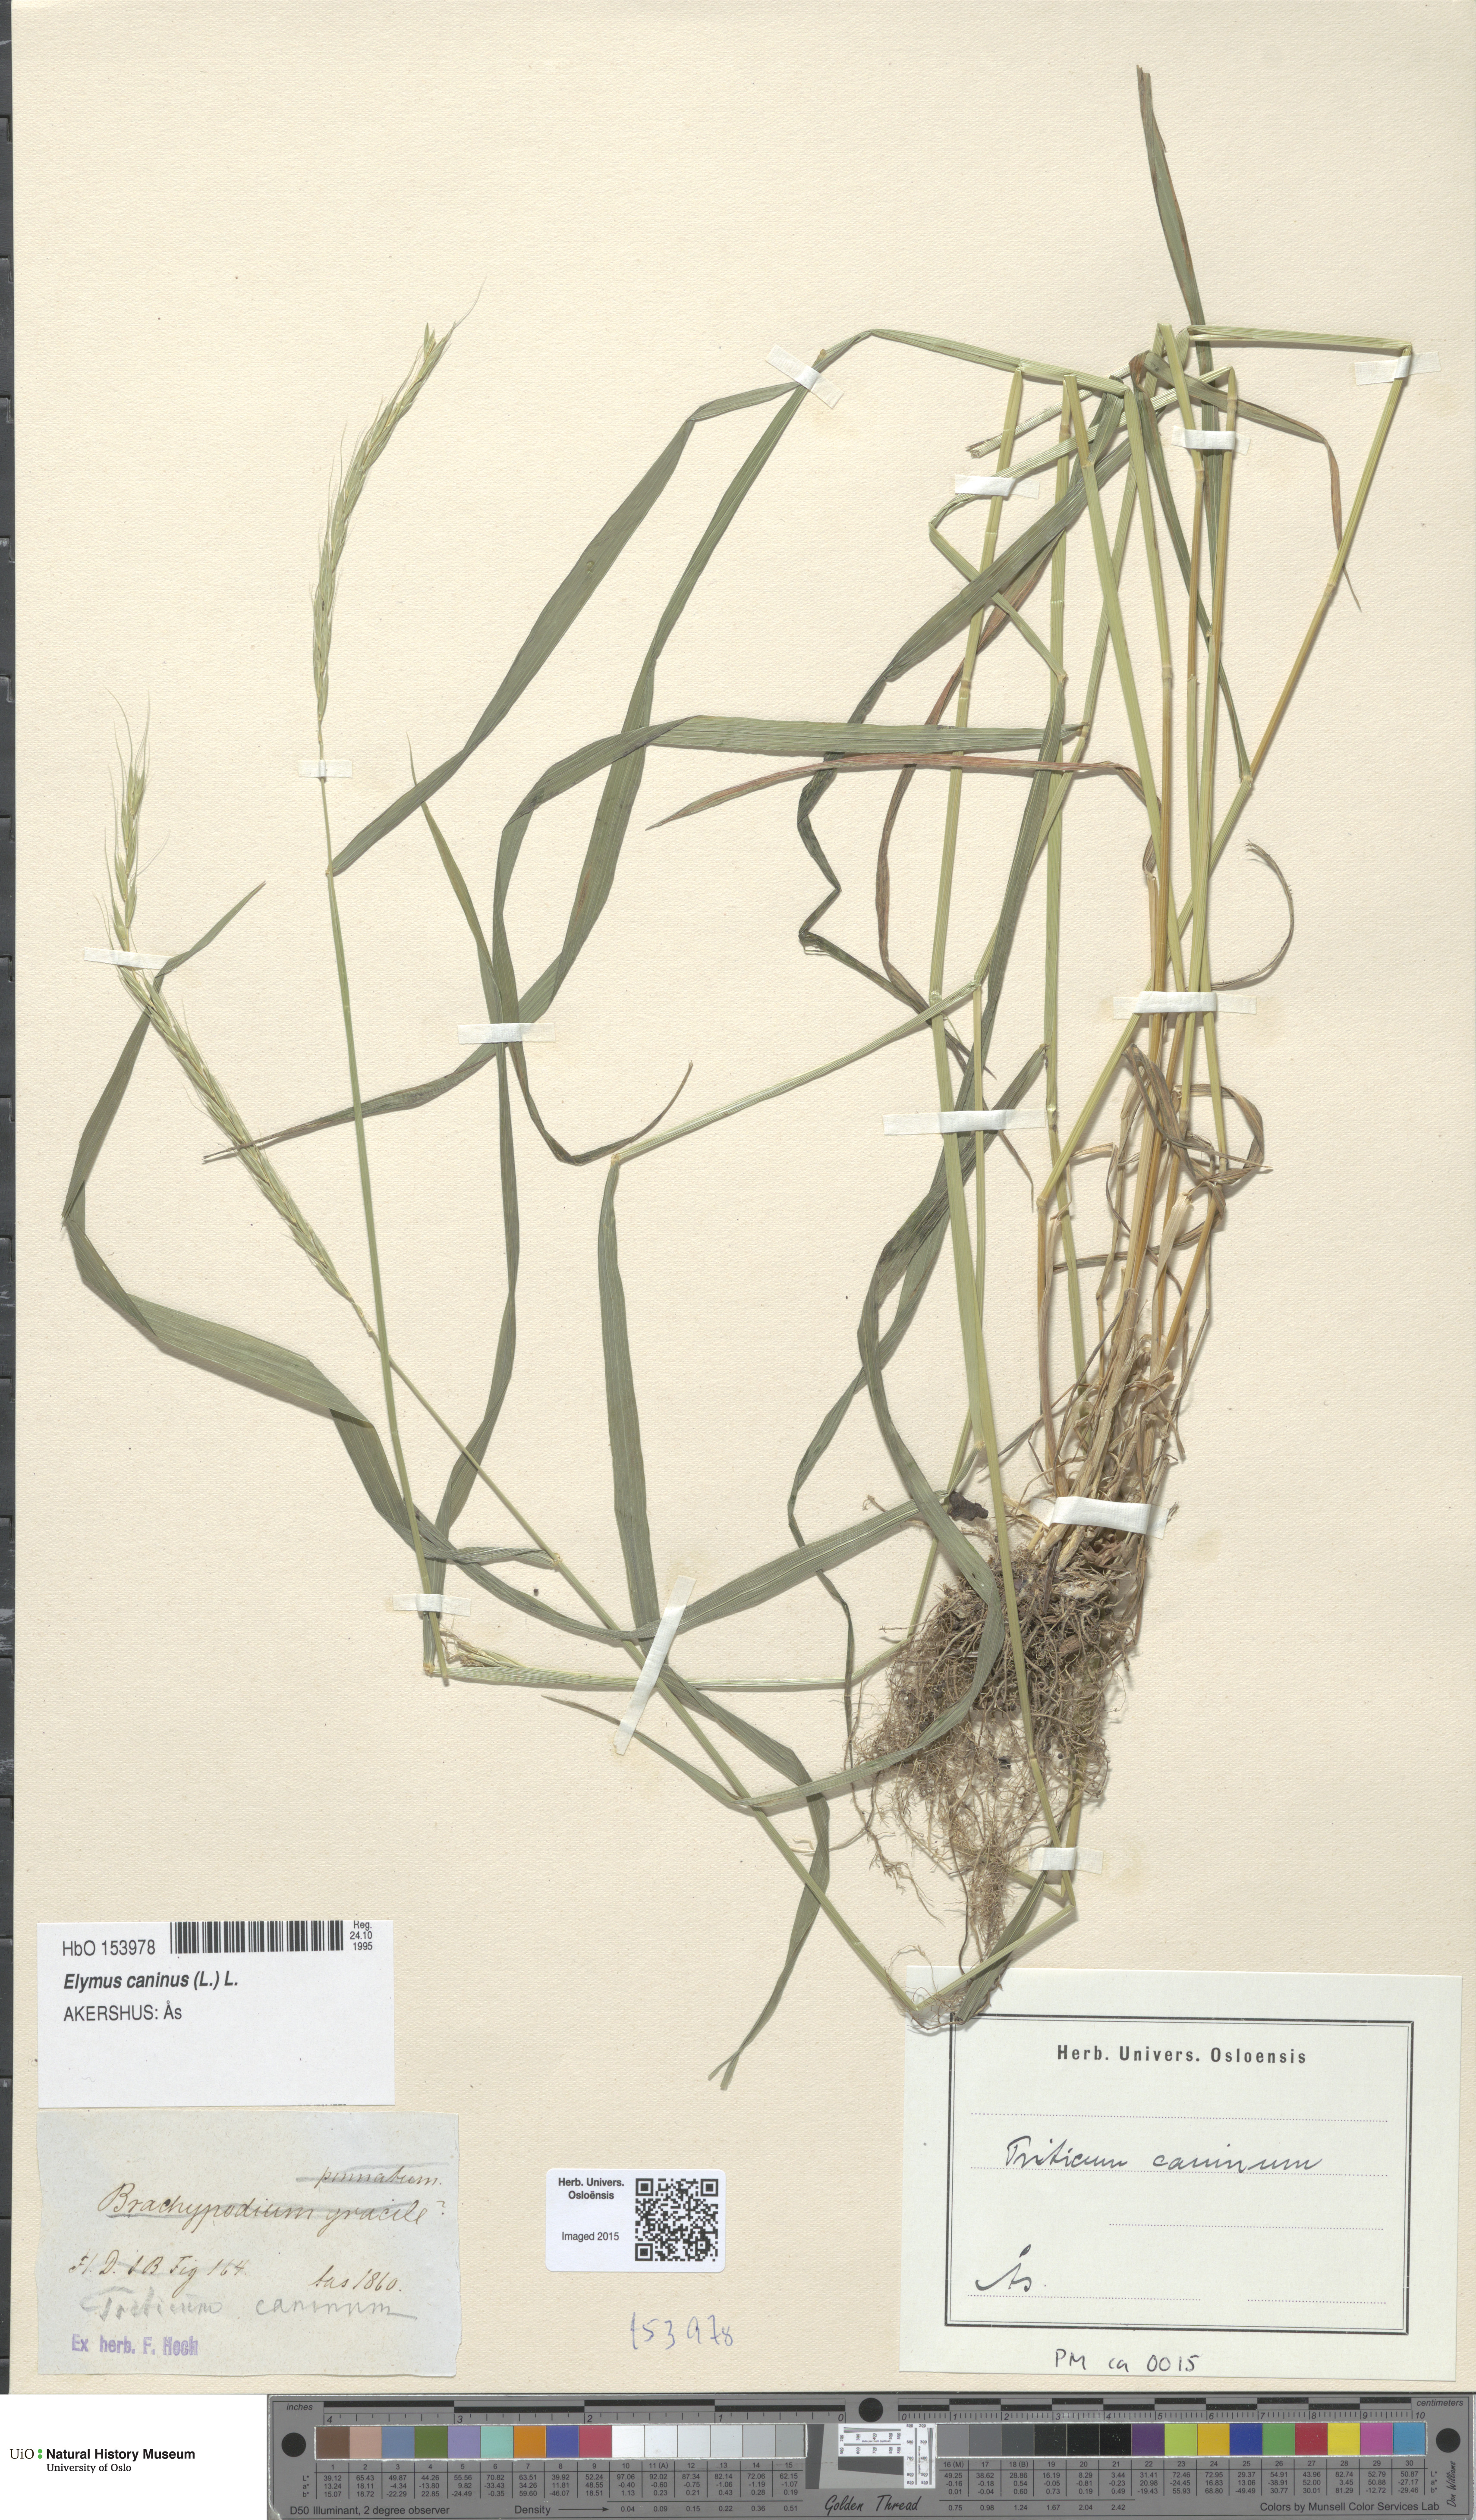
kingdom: Plantae
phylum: Tracheophyta
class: Liliopsida
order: Poales
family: Poaceae
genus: Elymus
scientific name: Elymus caninus
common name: Bearded couch
